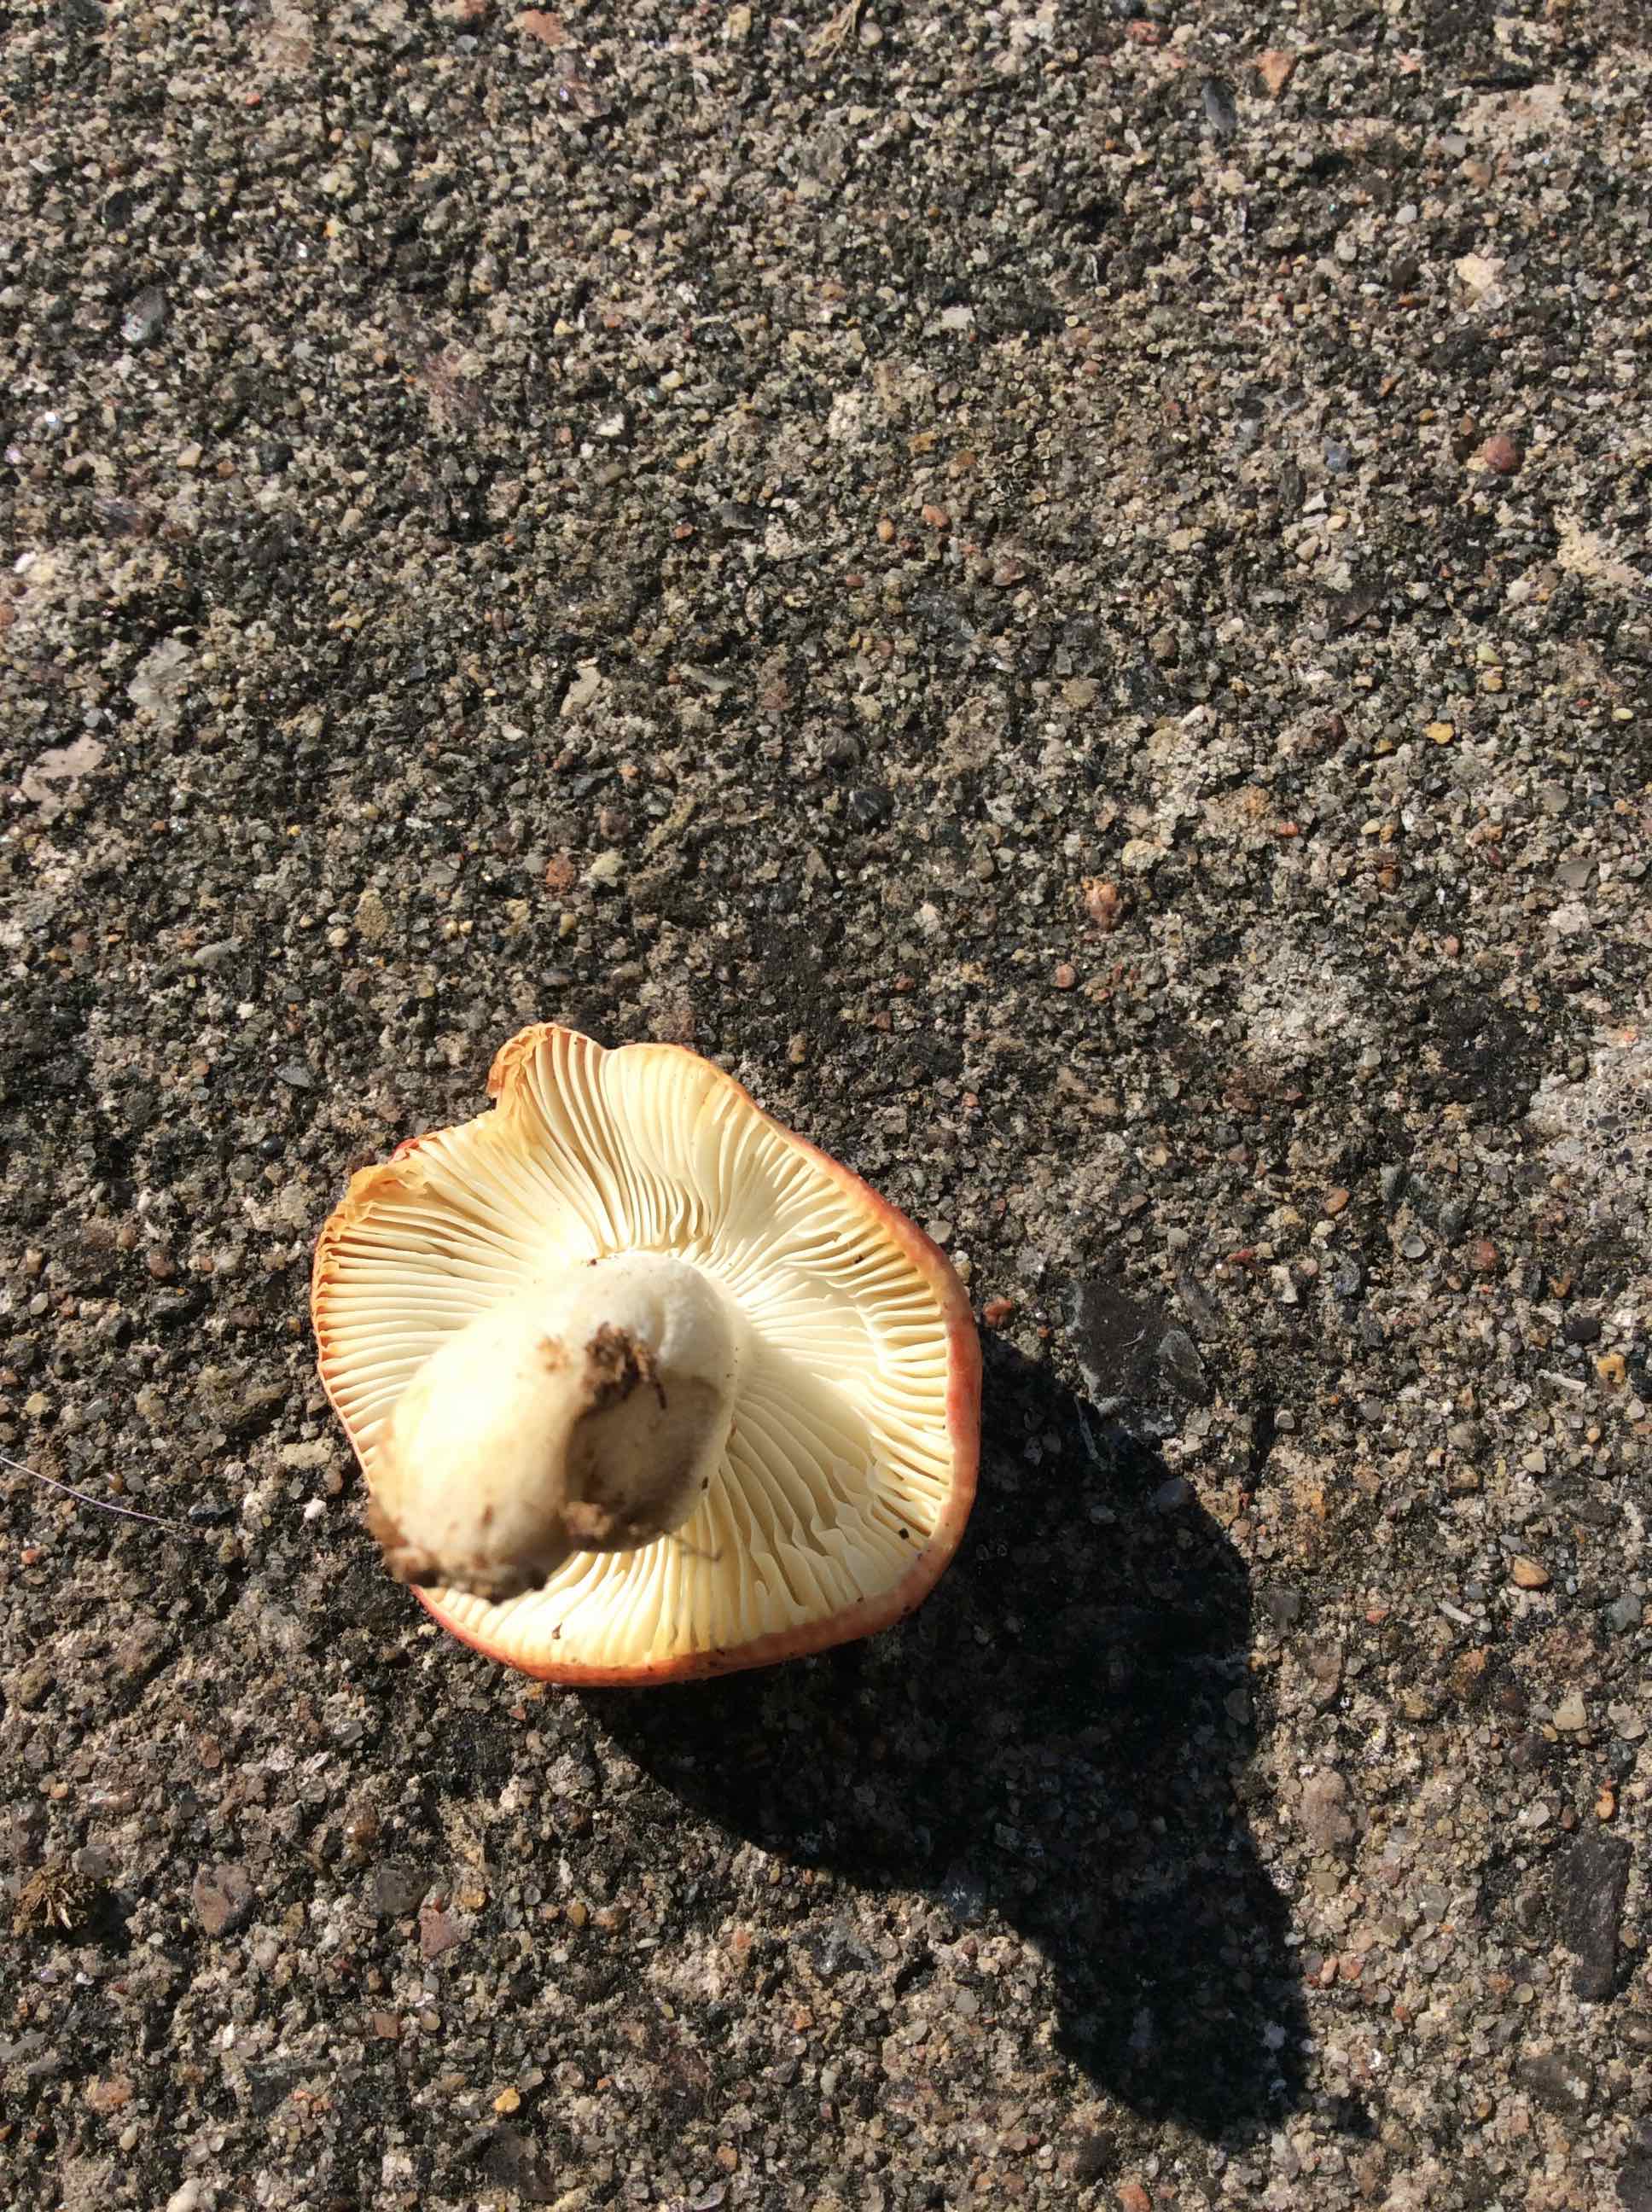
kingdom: Fungi
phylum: Basidiomycota
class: Agaricomycetes
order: Russulales
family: Russulaceae
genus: Russula
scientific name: Russula nobilis
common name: lille gift-skørhat
